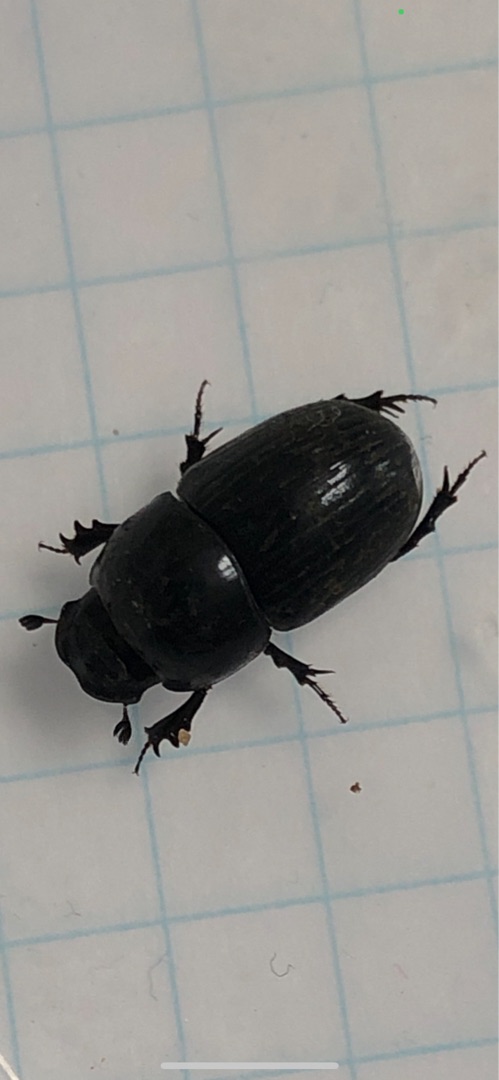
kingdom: Animalia
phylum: Arthropoda
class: Insecta
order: Coleoptera
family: Scarabaeidae
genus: Teuchestes
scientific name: Teuchestes fossor
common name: Stor møgbille
